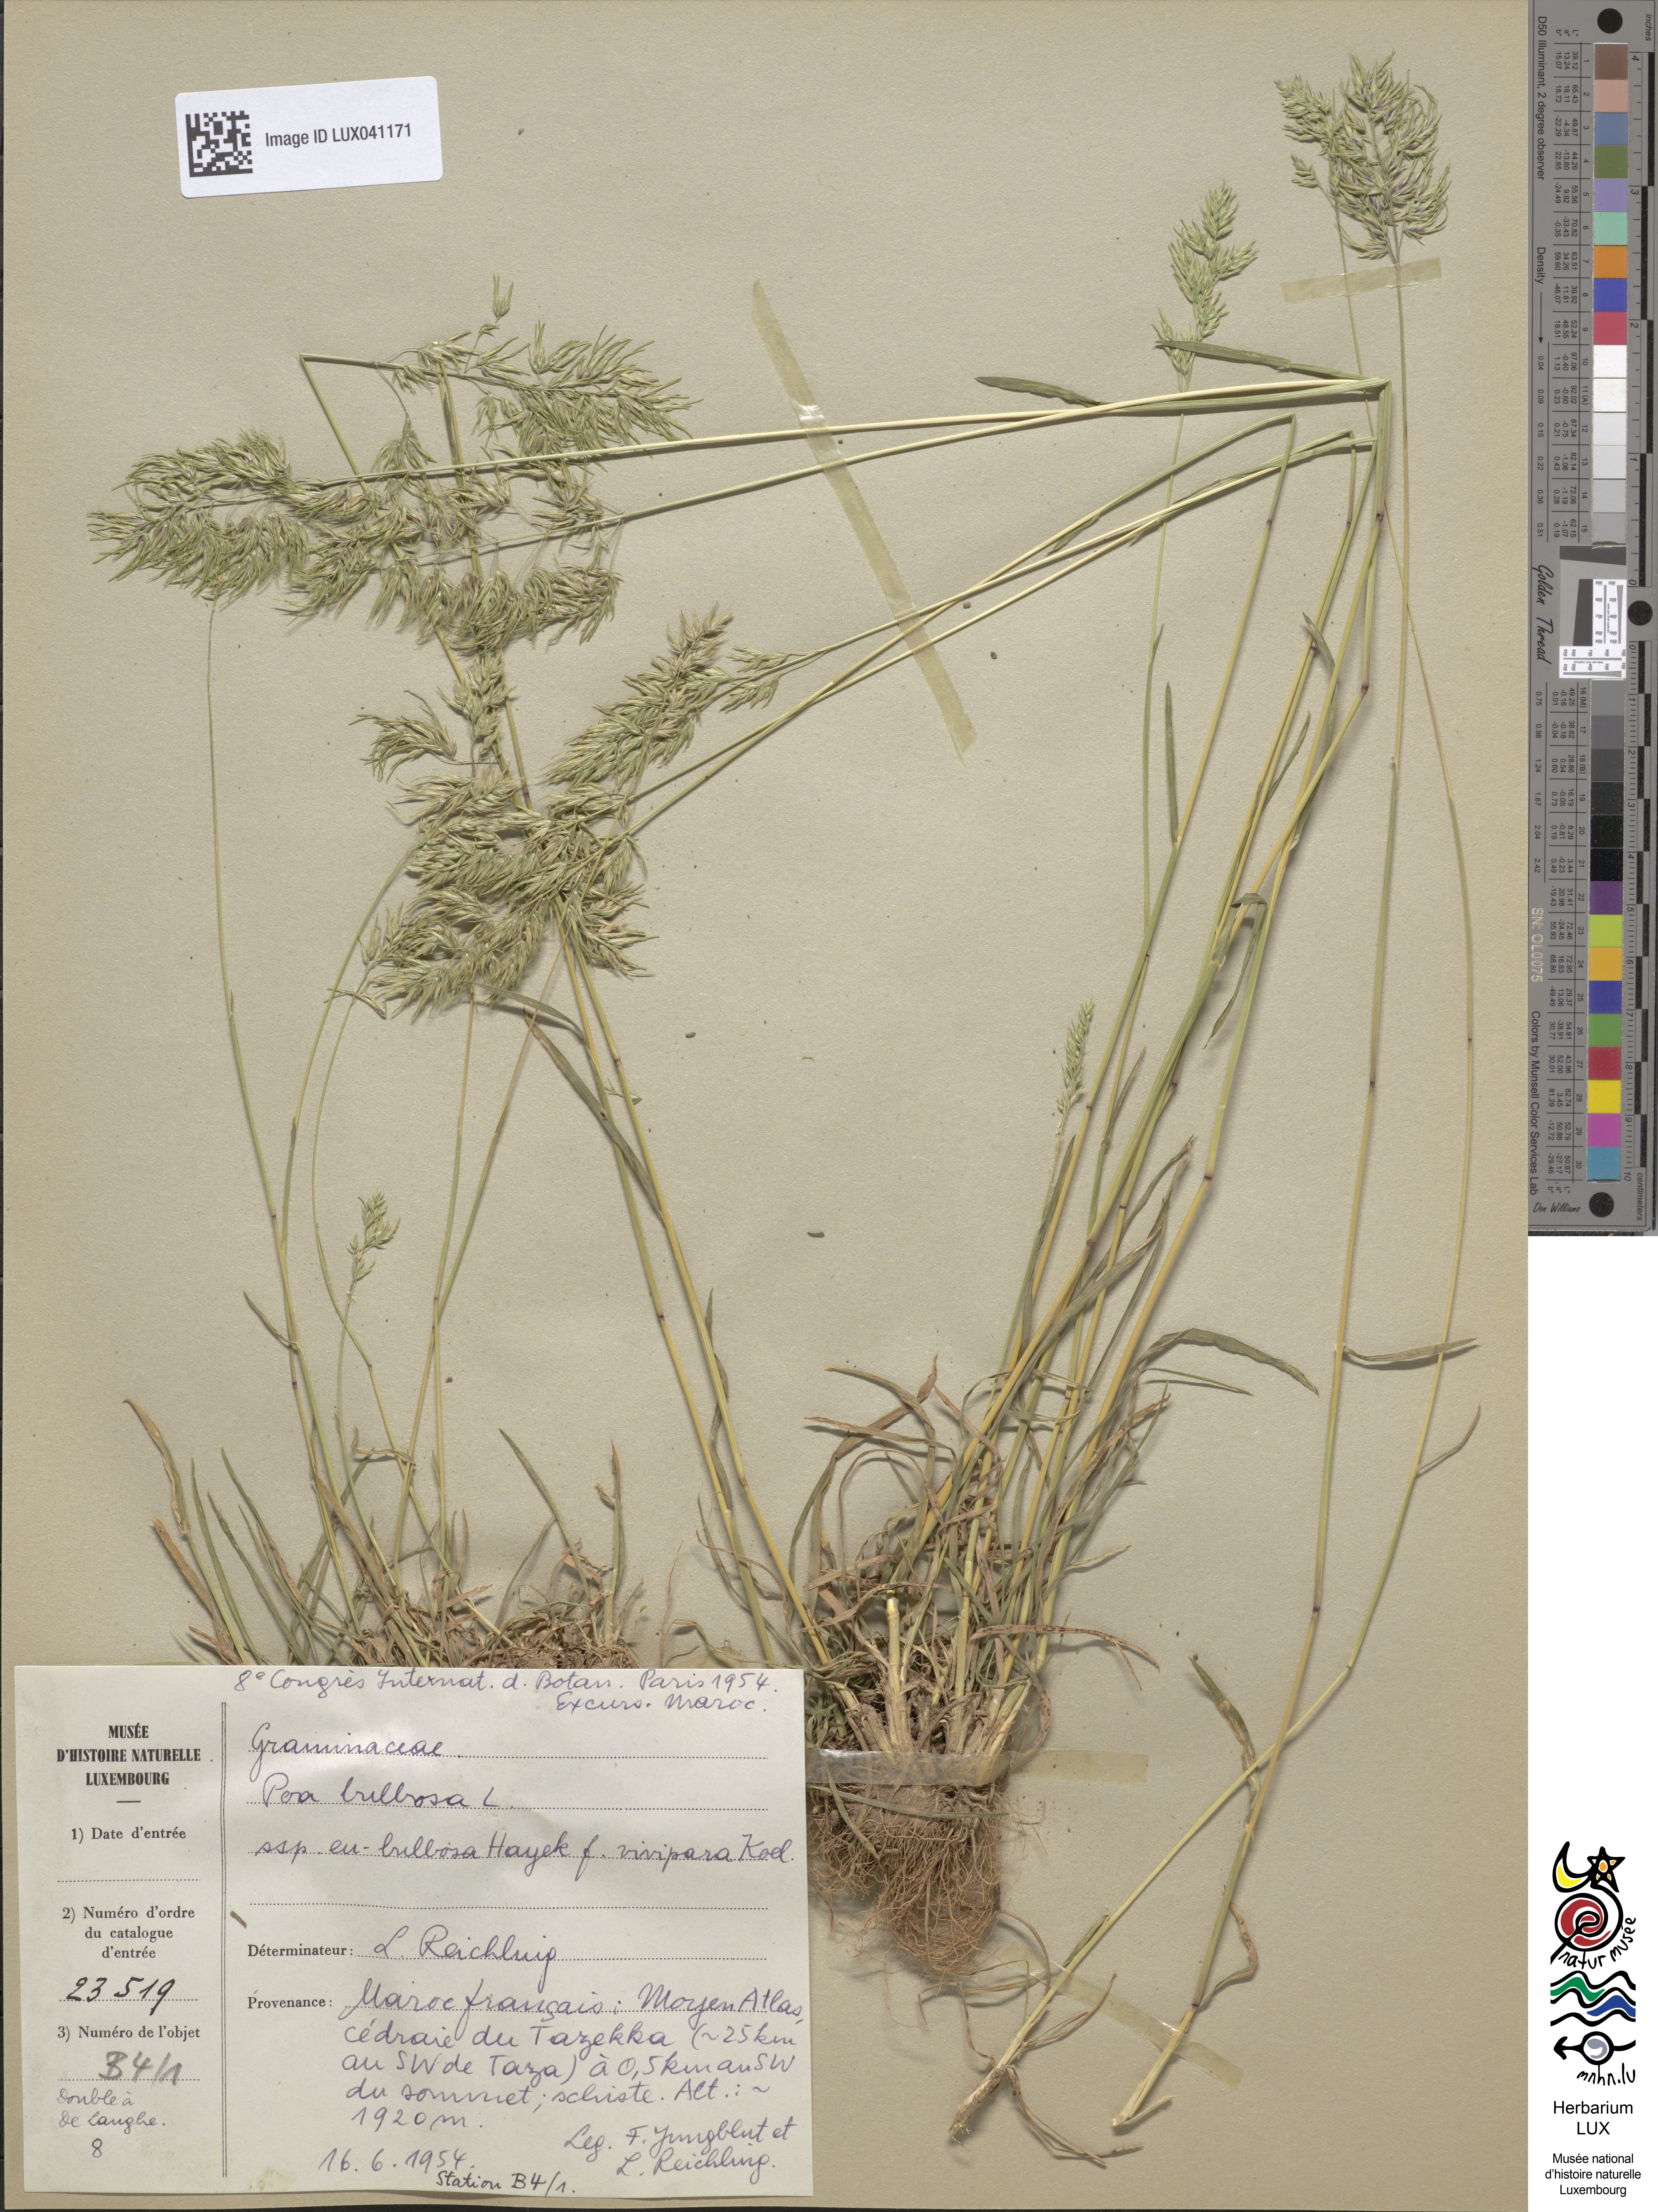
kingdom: Plantae
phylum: Tracheophyta
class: Liliopsida
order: Poales
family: Poaceae
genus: Poa
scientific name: Poa bulbosa
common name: Bulbous bluegrass
